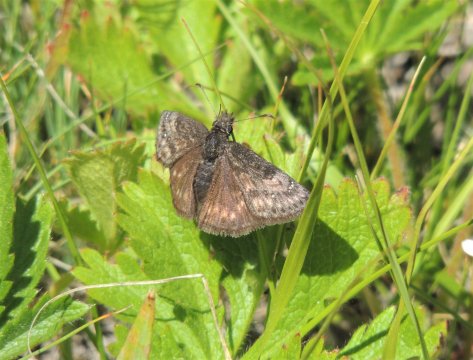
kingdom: Animalia
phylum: Arthropoda
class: Insecta
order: Lepidoptera
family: Hesperiidae
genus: Gesta
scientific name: Gesta
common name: Persius Duskywing
